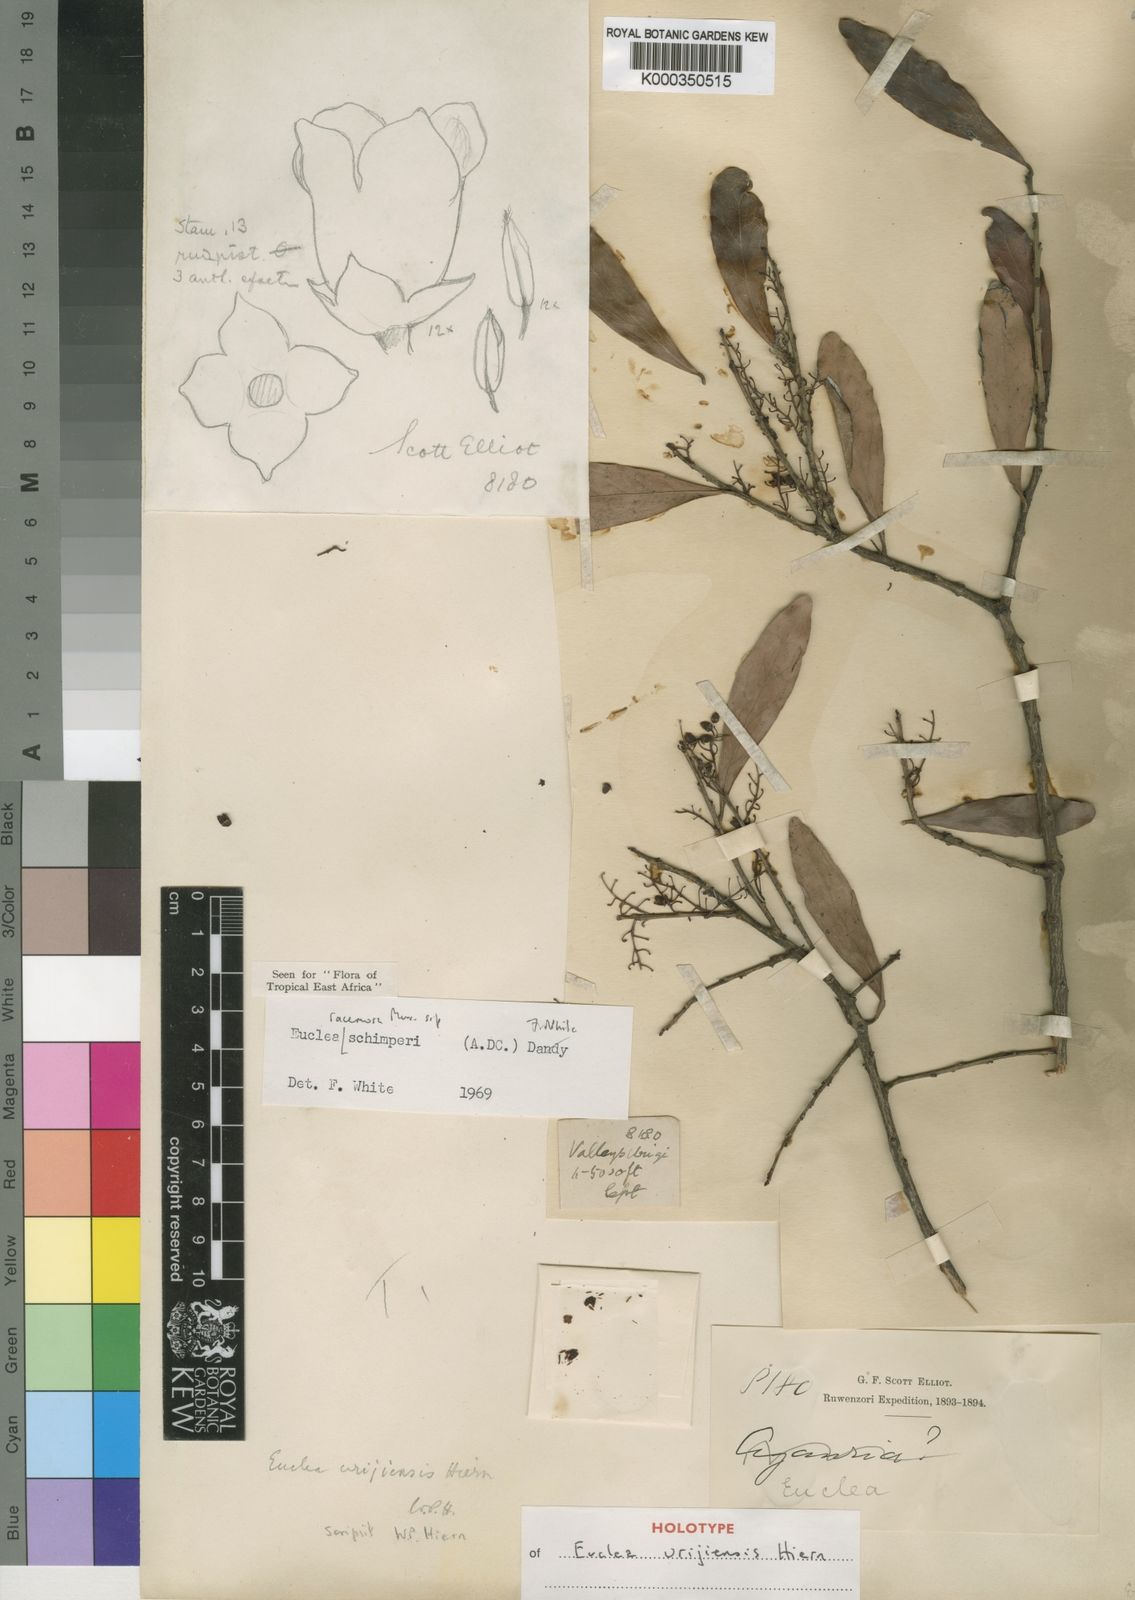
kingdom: Plantae
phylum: Tracheophyta
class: Magnoliopsida
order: Ericales
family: Ebenaceae
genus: Euclea
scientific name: Euclea racemosa
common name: Dune guarri
